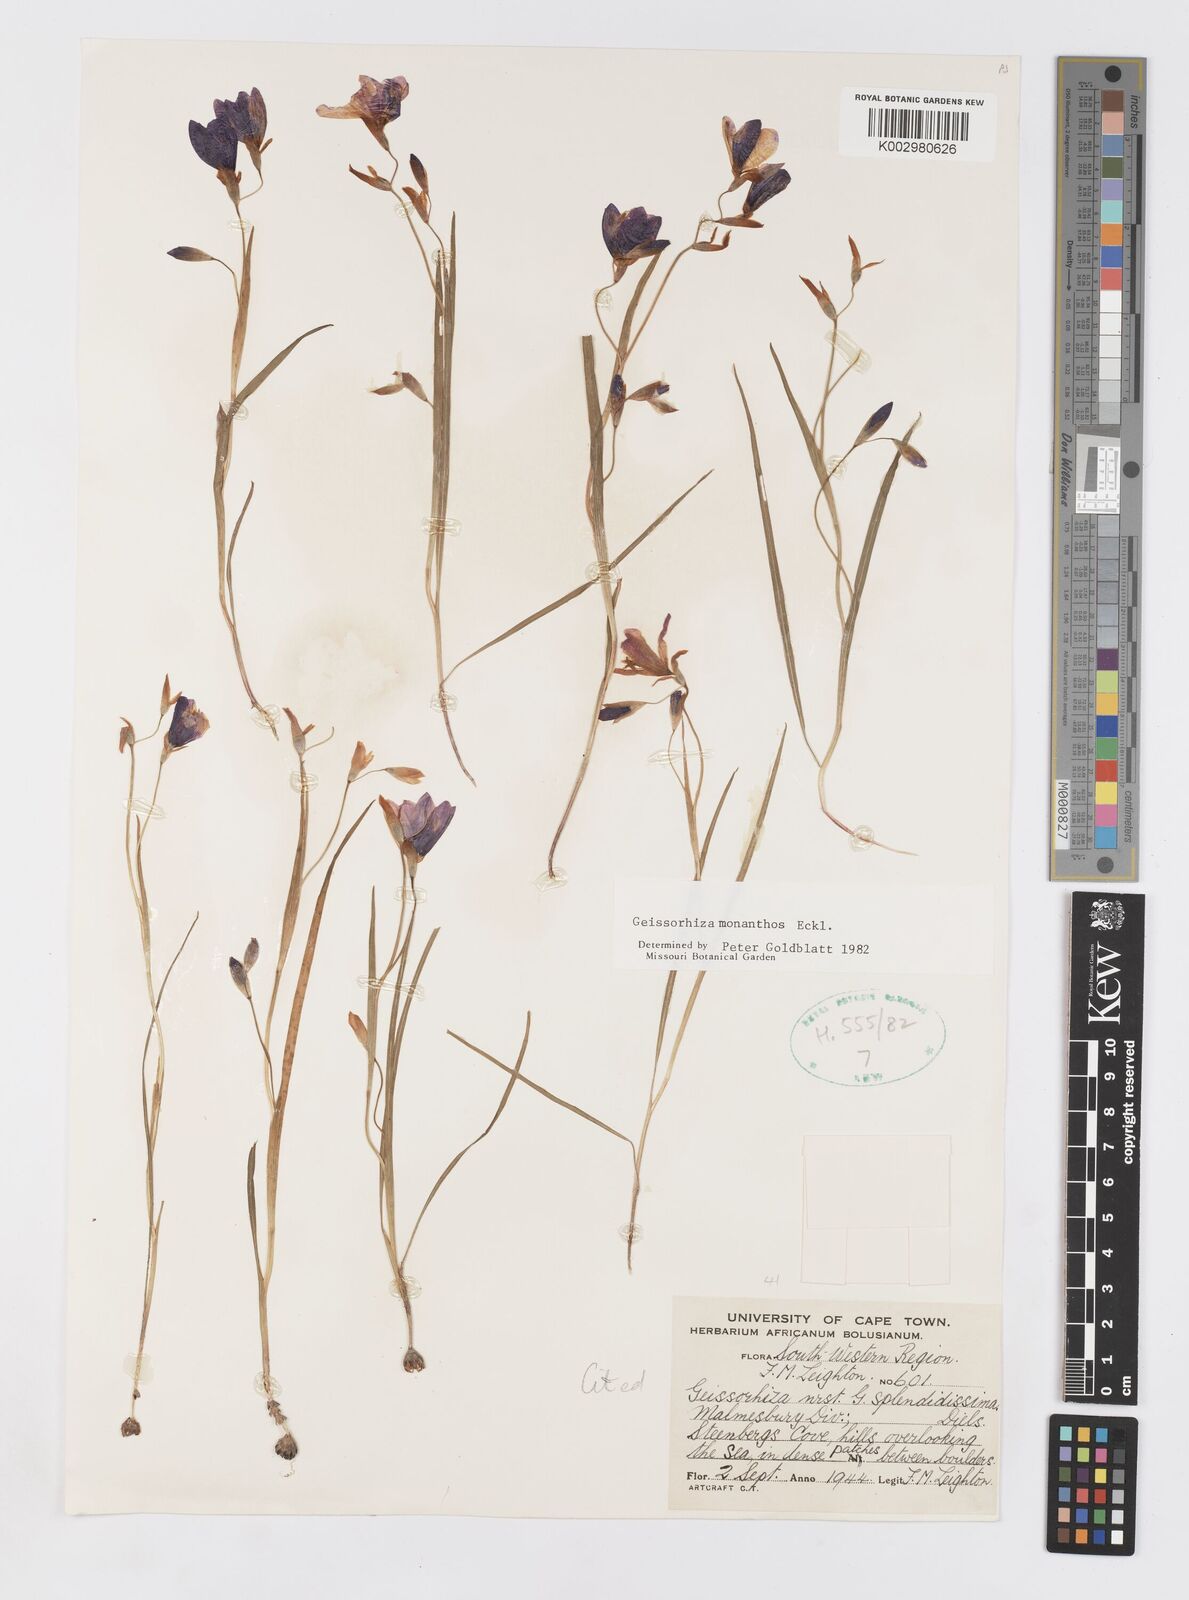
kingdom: Plantae
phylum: Tracheophyta
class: Liliopsida
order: Asparagales
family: Iridaceae
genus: Geissorhiza
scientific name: Geissorhiza monanthos
